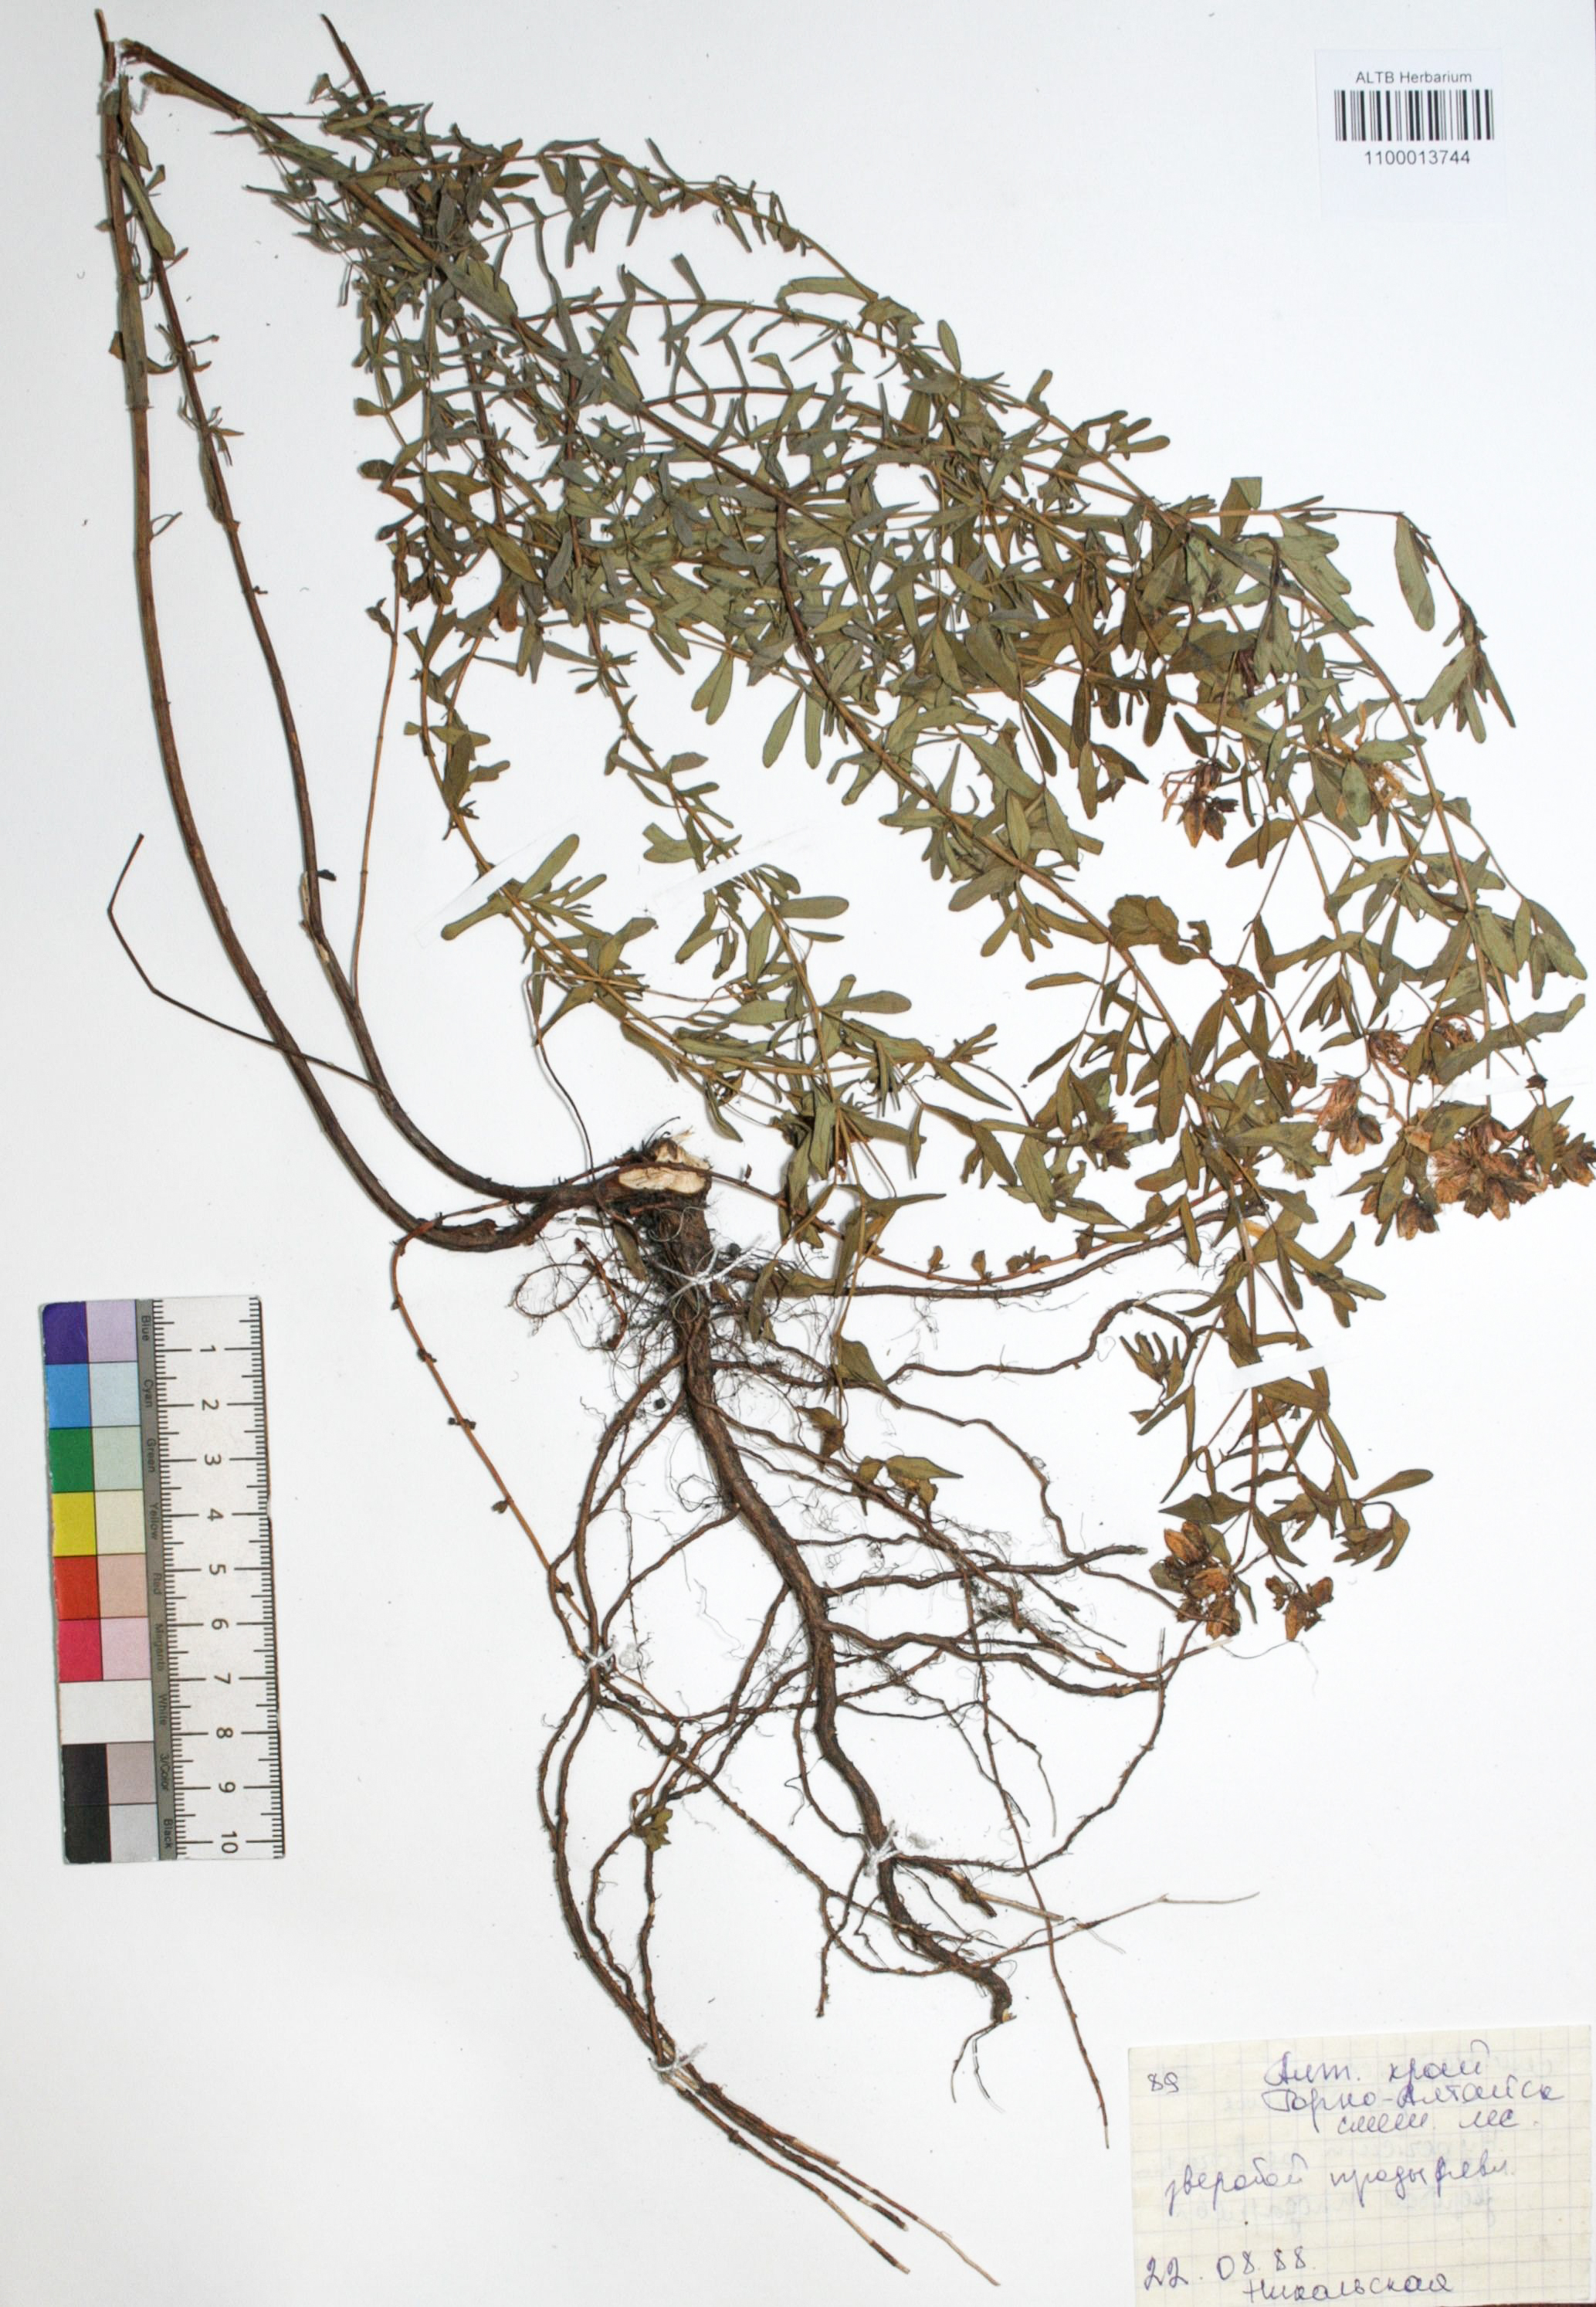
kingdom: Plantae
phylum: Tracheophyta
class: Magnoliopsida
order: Malpighiales
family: Hypericaceae
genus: Hypericum
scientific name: Hypericum perforatum
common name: Common st. johnswort
